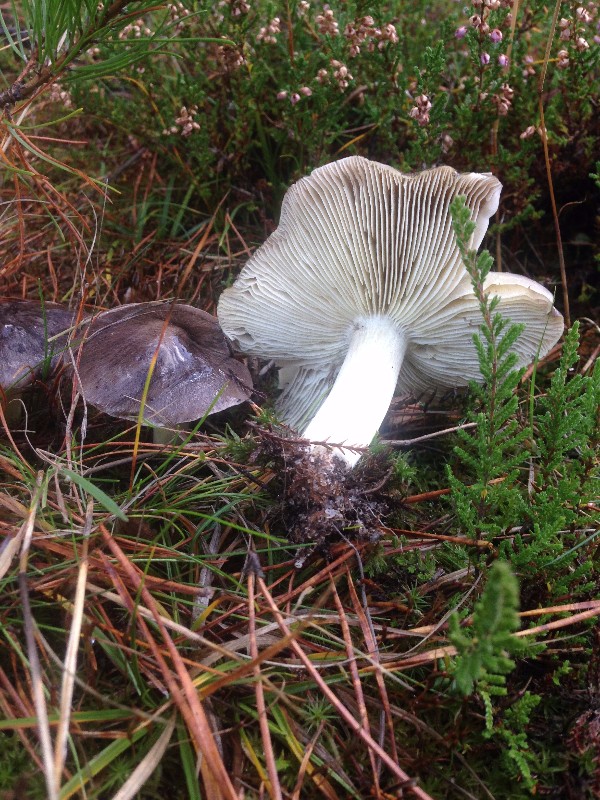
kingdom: Fungi
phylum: Basidiomycota
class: Agaricomycetes
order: Agaricales
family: Tricholomataceae
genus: Tricholoma
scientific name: Tricholoma portentosum
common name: grå ridderhat
